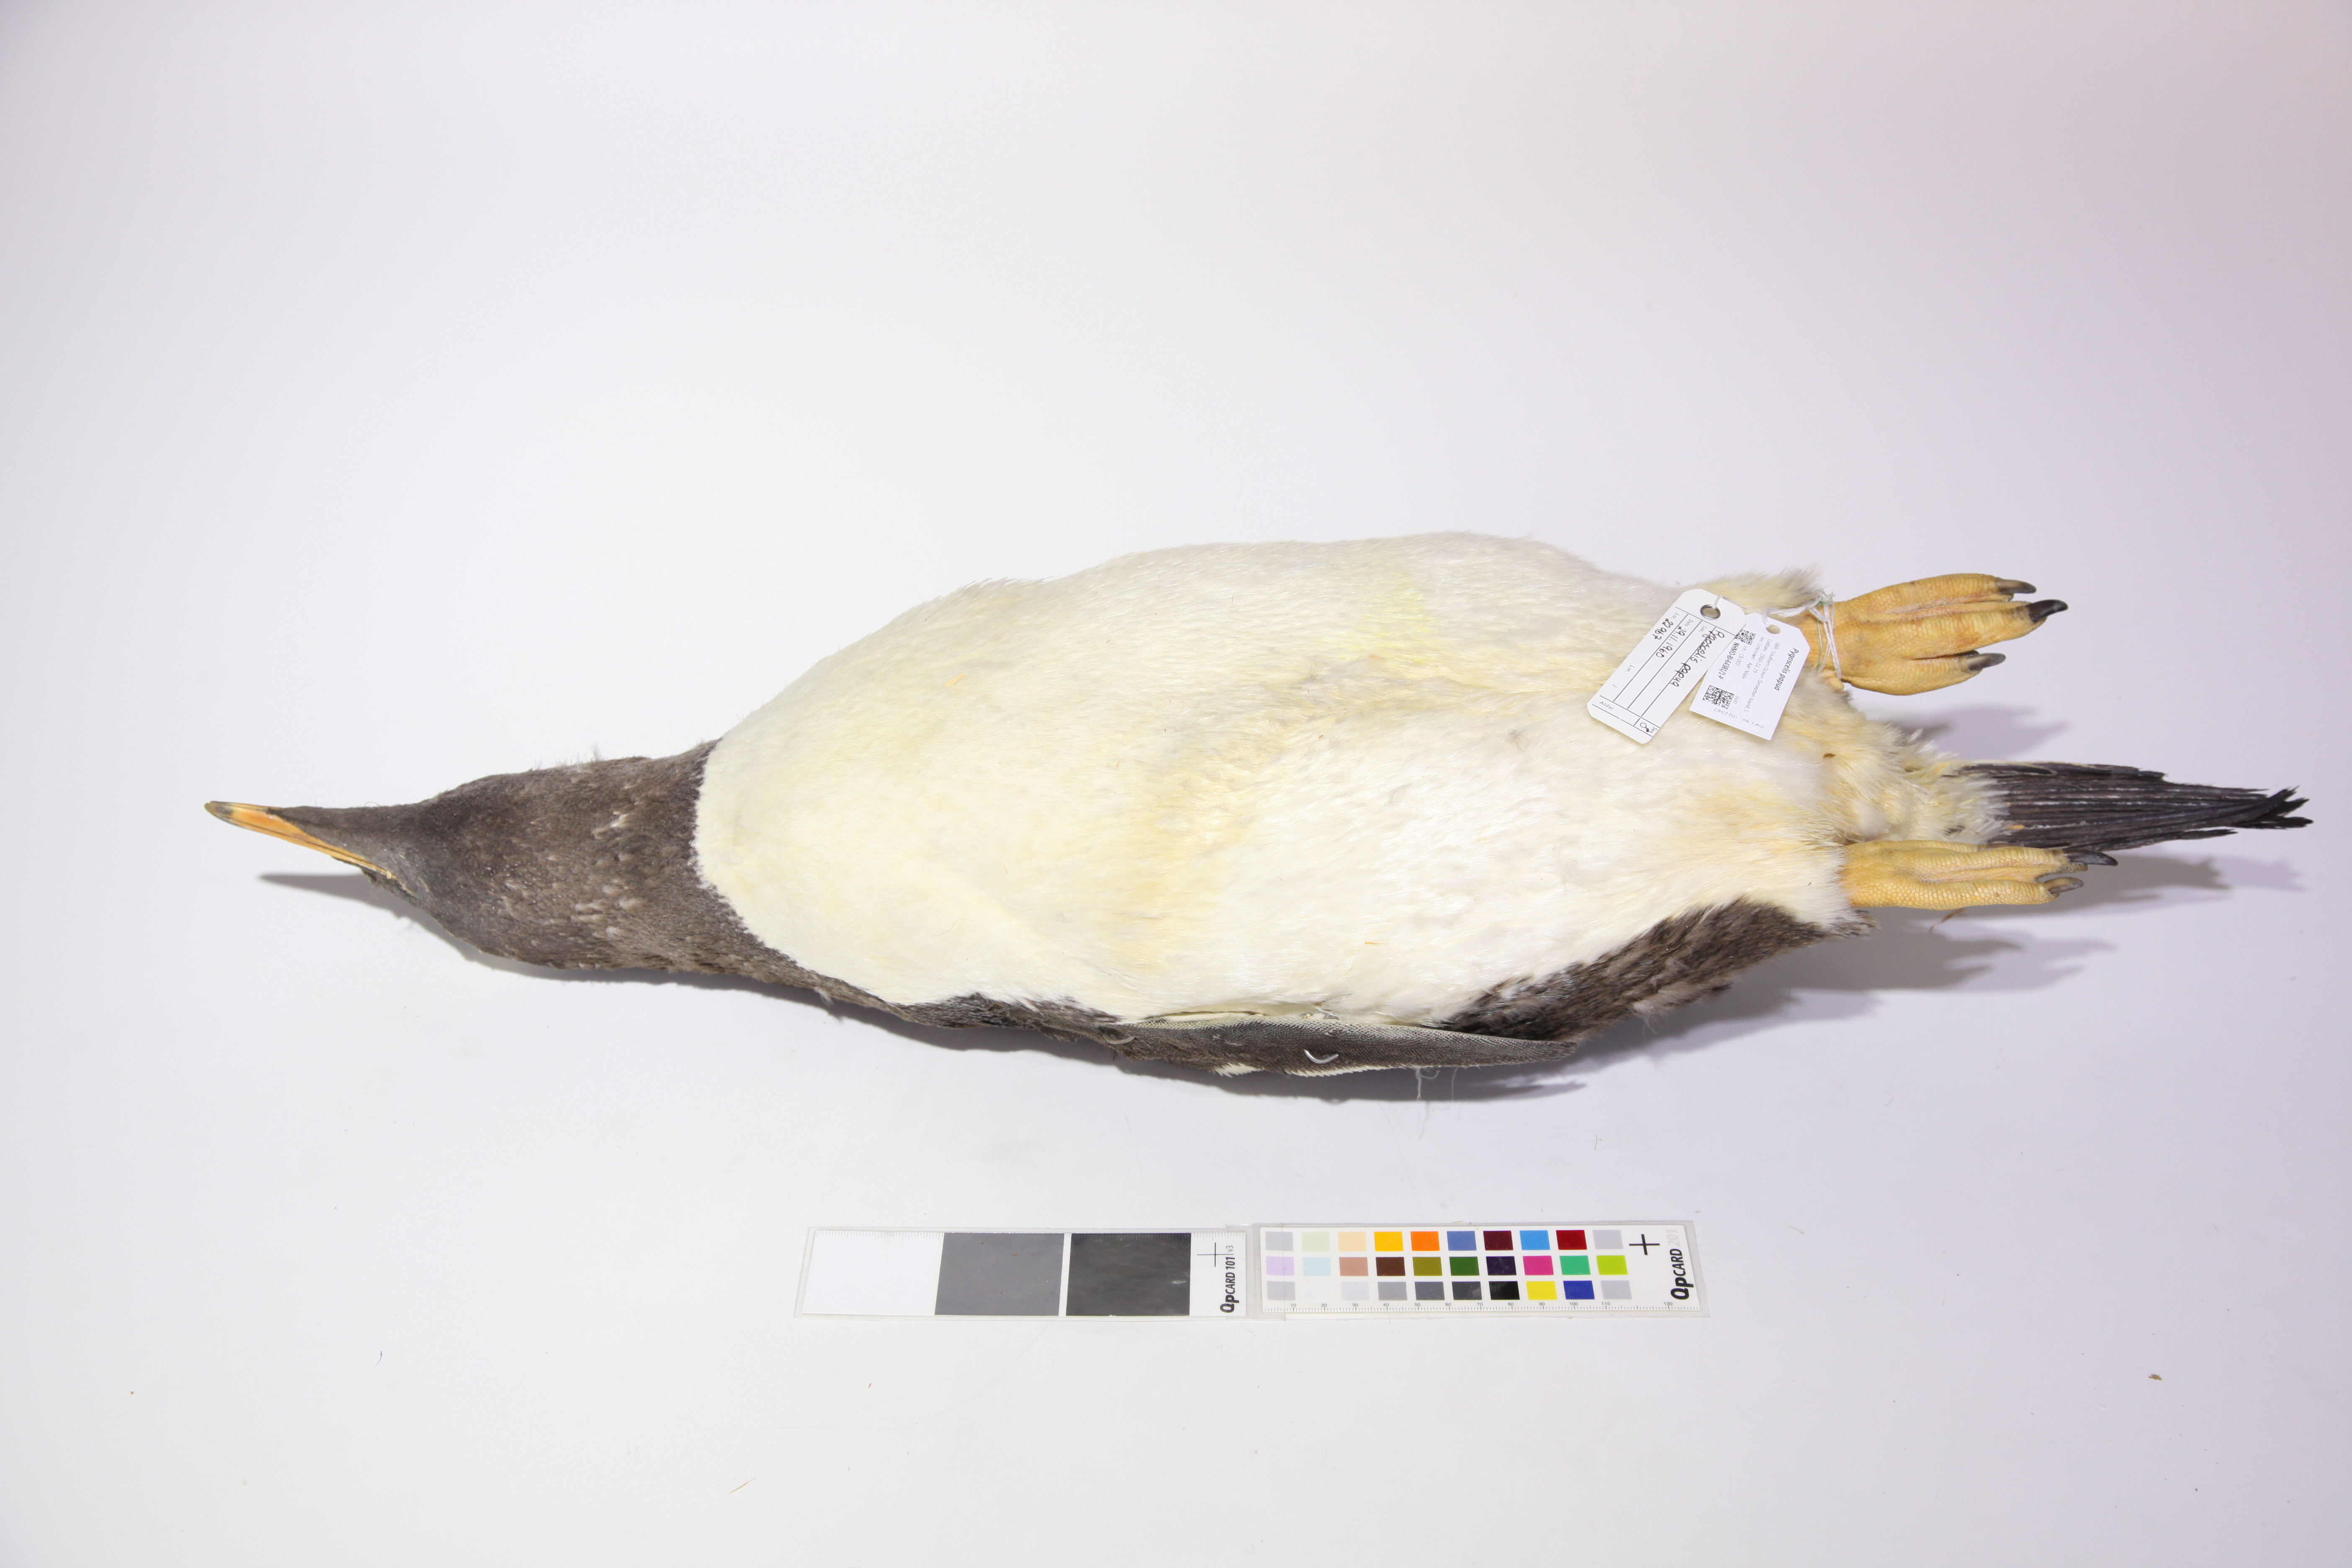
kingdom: Animalia
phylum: Chordata
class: Aves
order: Sphenisciformes
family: Spheniscidae
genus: Pygoscelis
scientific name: Pygoscelis papua
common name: Gentoo penguin
